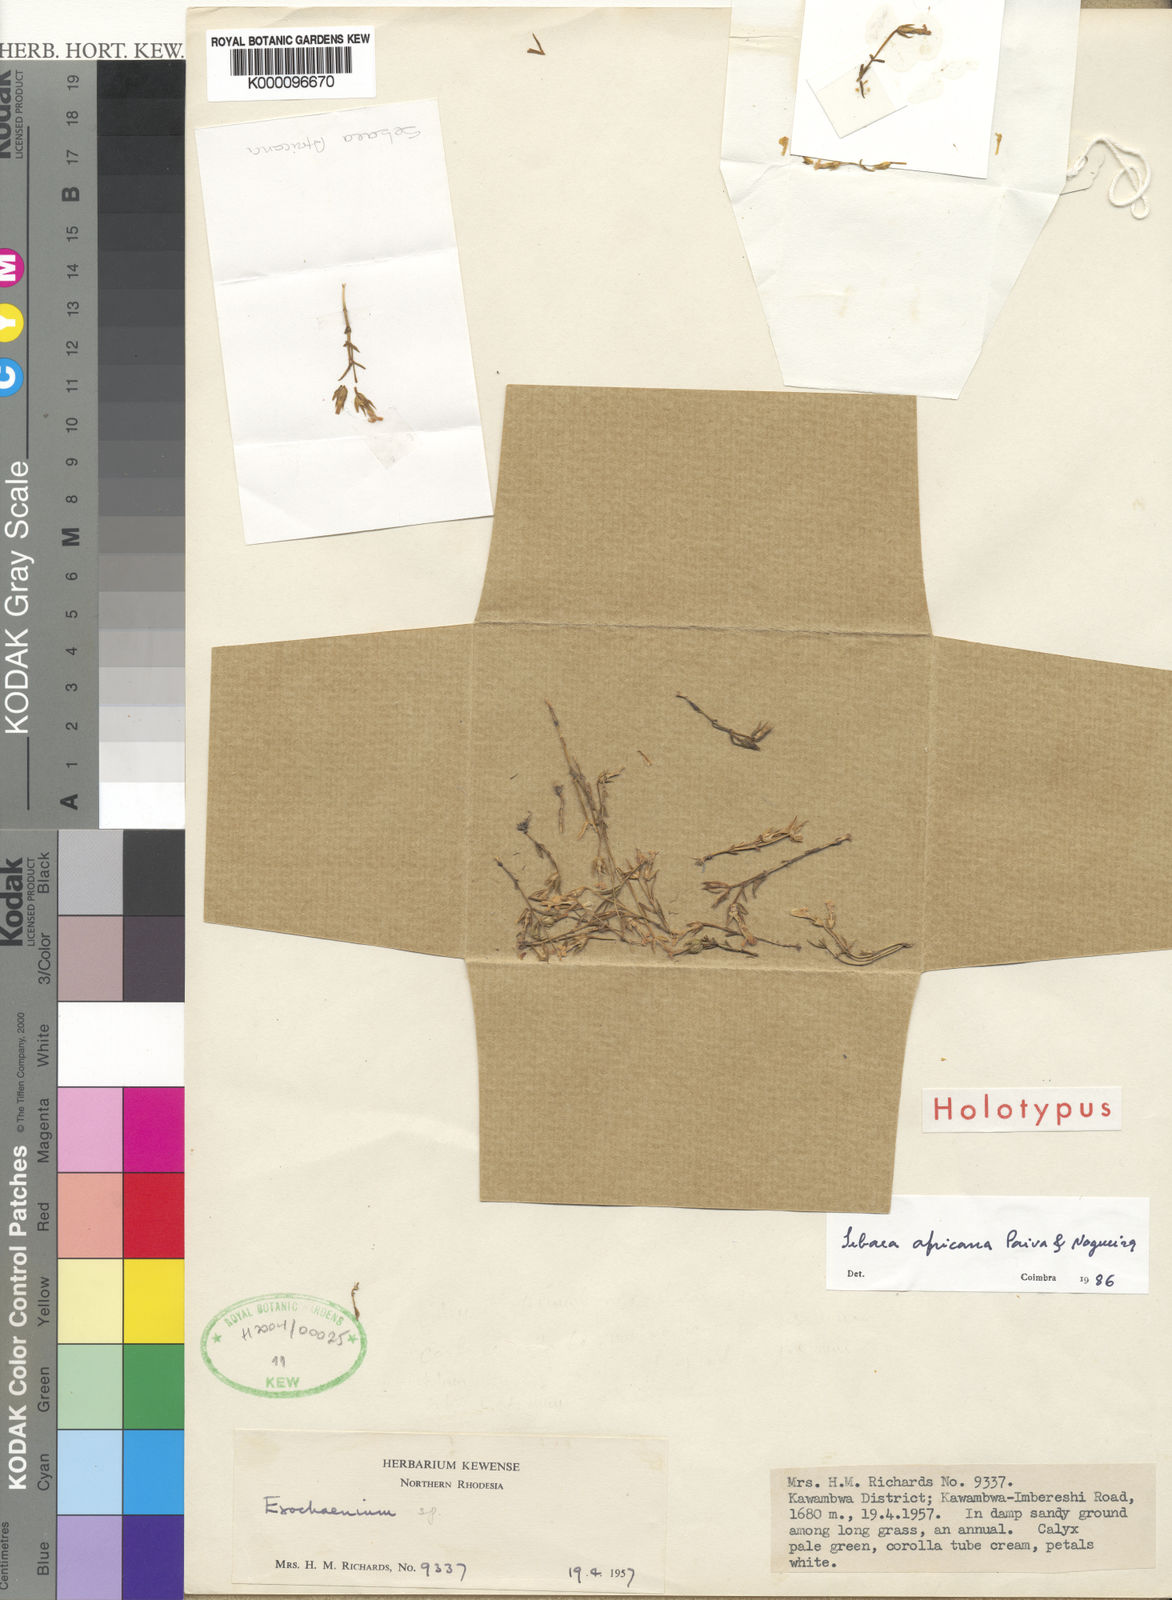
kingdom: Plantae
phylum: Tracheophyta
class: Magnoliopsida
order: Gentianales
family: Gentianaceae
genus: Exochaenium
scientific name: Exochaenium debile
